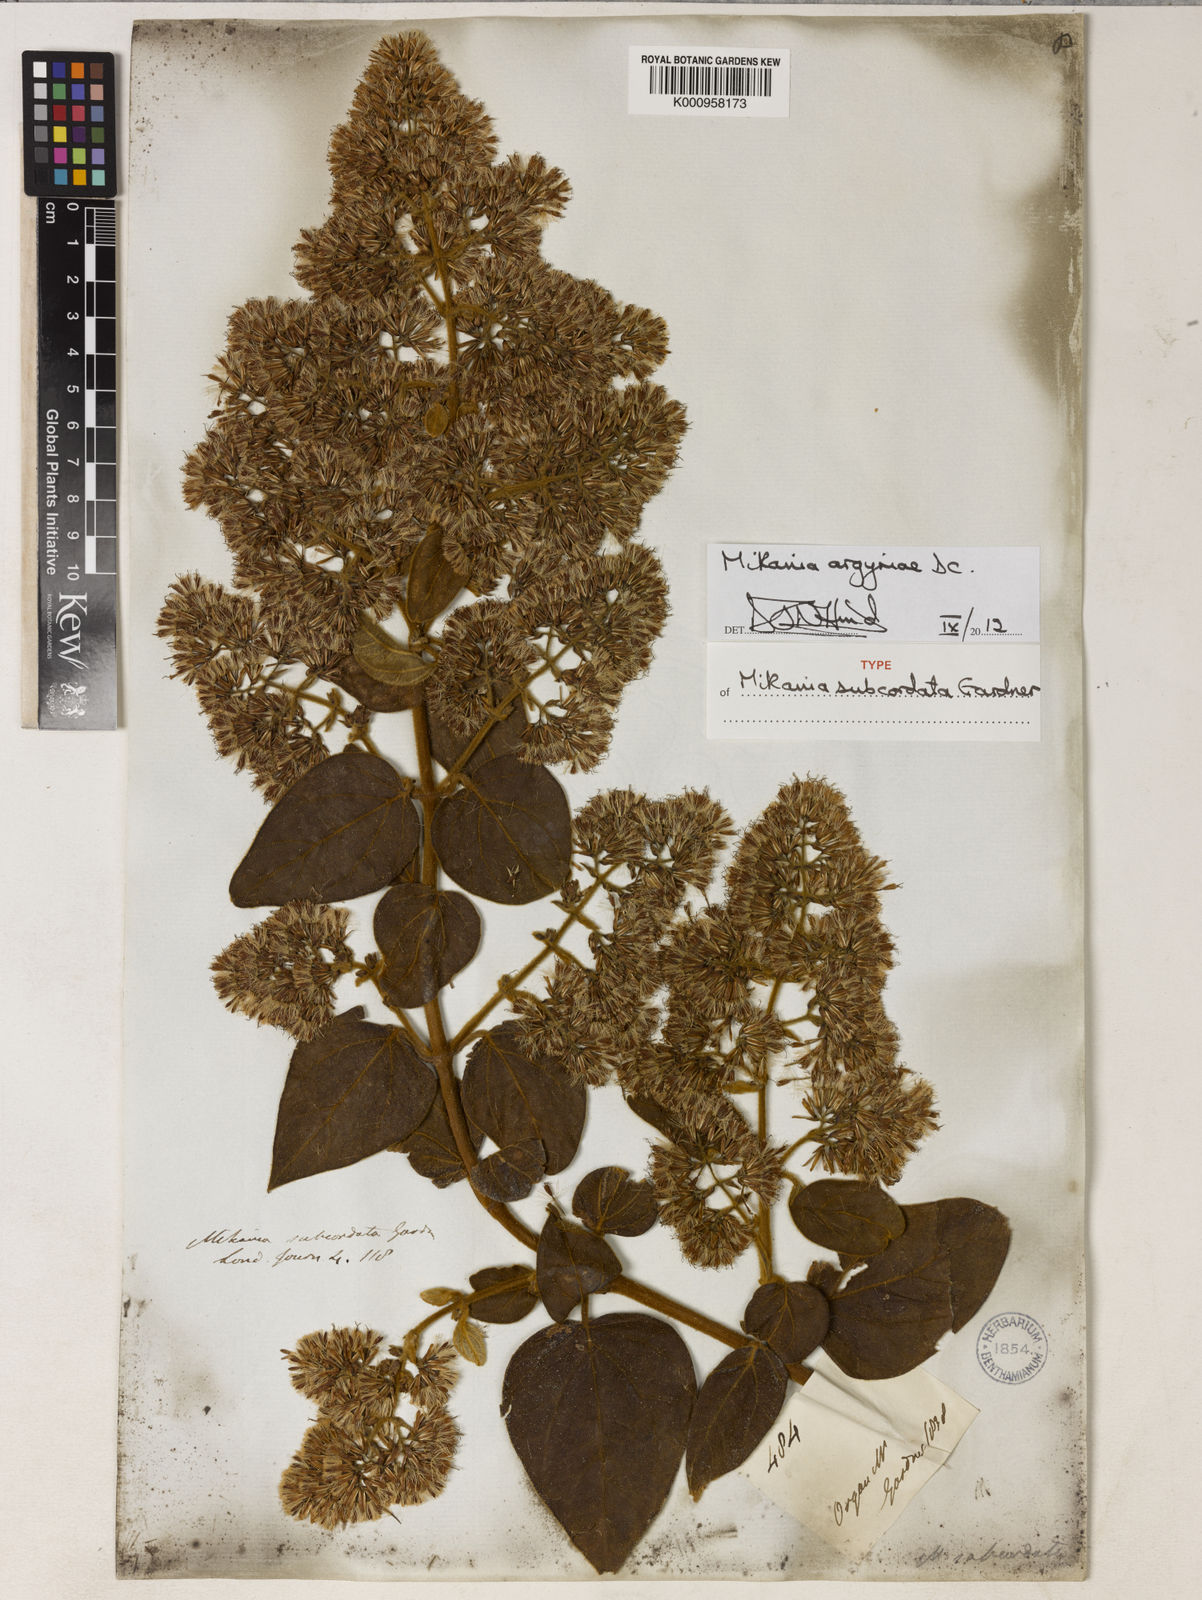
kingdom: Plantae
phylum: Tracheophyta
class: Magnoliopsida
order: Asterales
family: Asteraceae
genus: Mikania
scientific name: Mikania argyreiae
